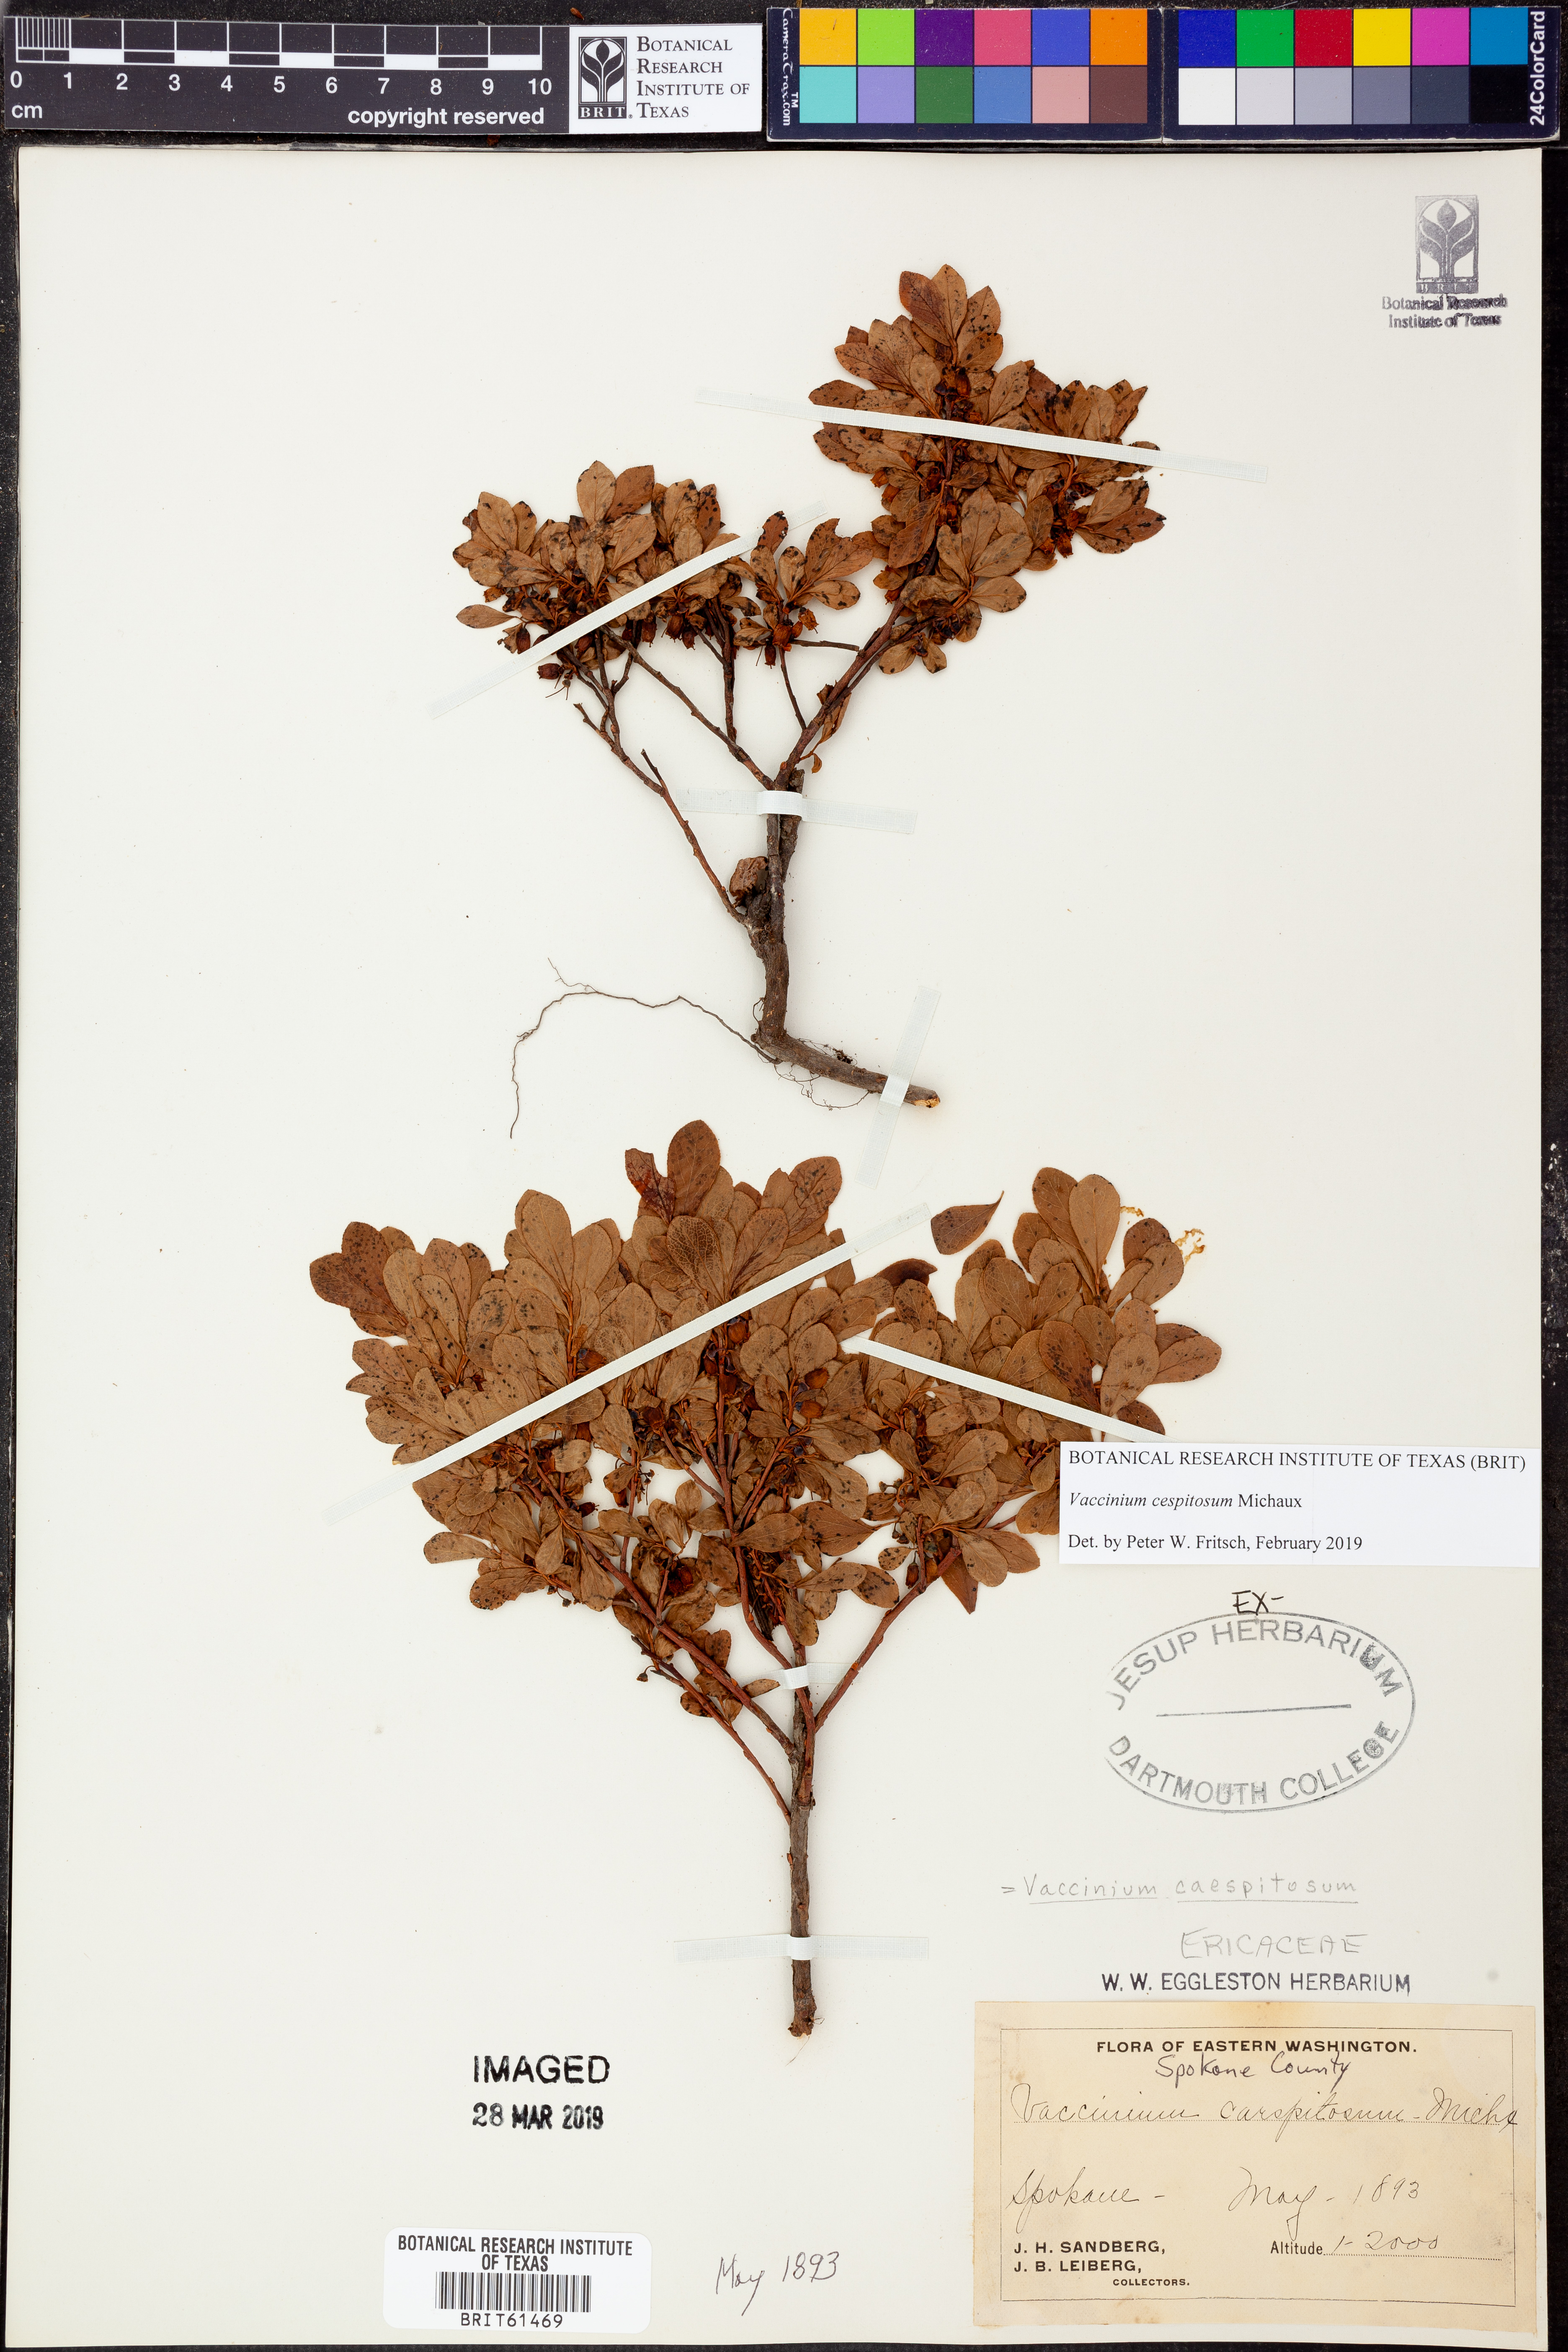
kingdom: Plantae
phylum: Tracheophyta
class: Magnoliopsida
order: Ericales
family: Ericaceae
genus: Vaccinium
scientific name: Vaccinium cespitosum
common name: Dwarf bilberry
